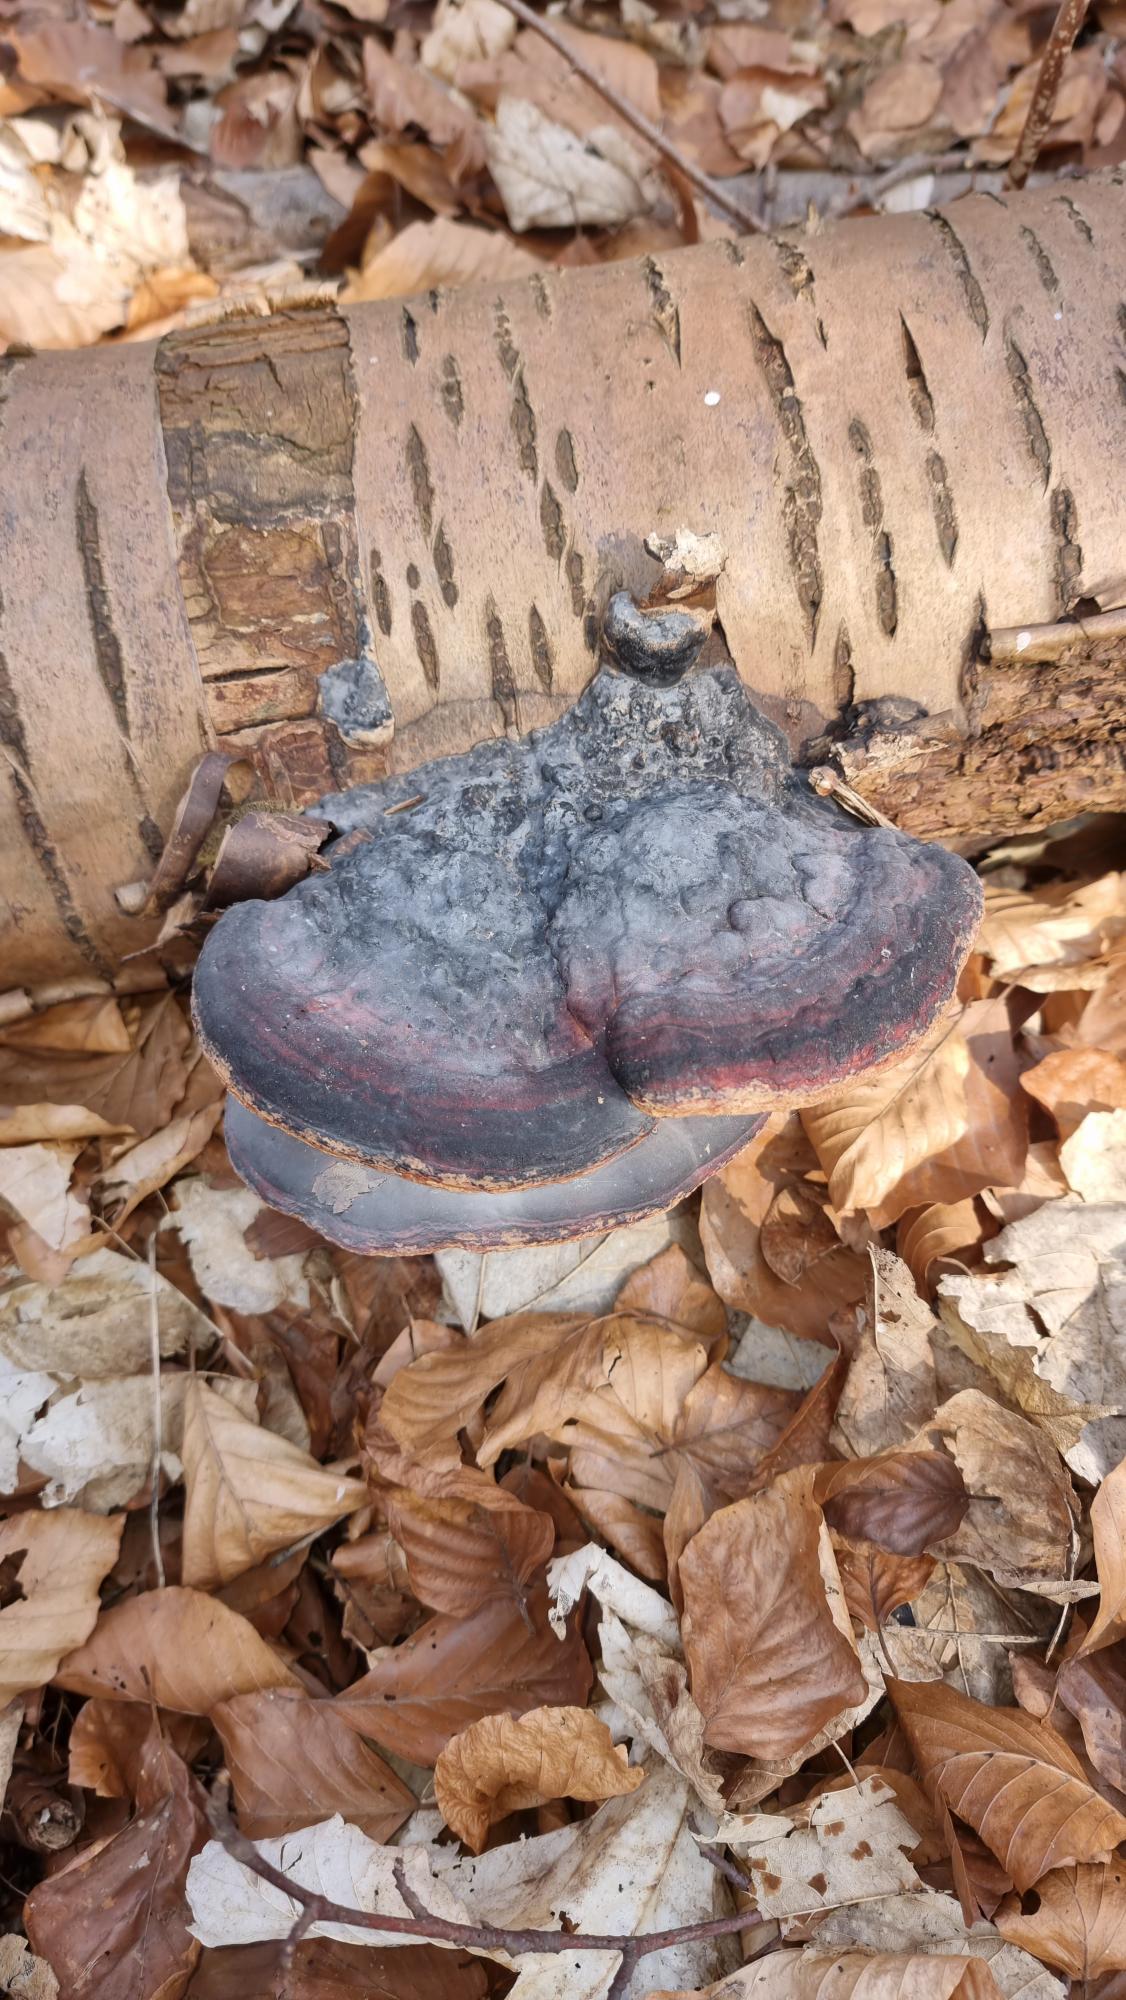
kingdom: Fungi
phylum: Basidiomycota
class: Agaricomycetes
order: Polyporales
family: Fomitopsidaceae
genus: Fomitopsis
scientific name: Fomitopsis pinicola
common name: Randbæltet hovporesvamp
